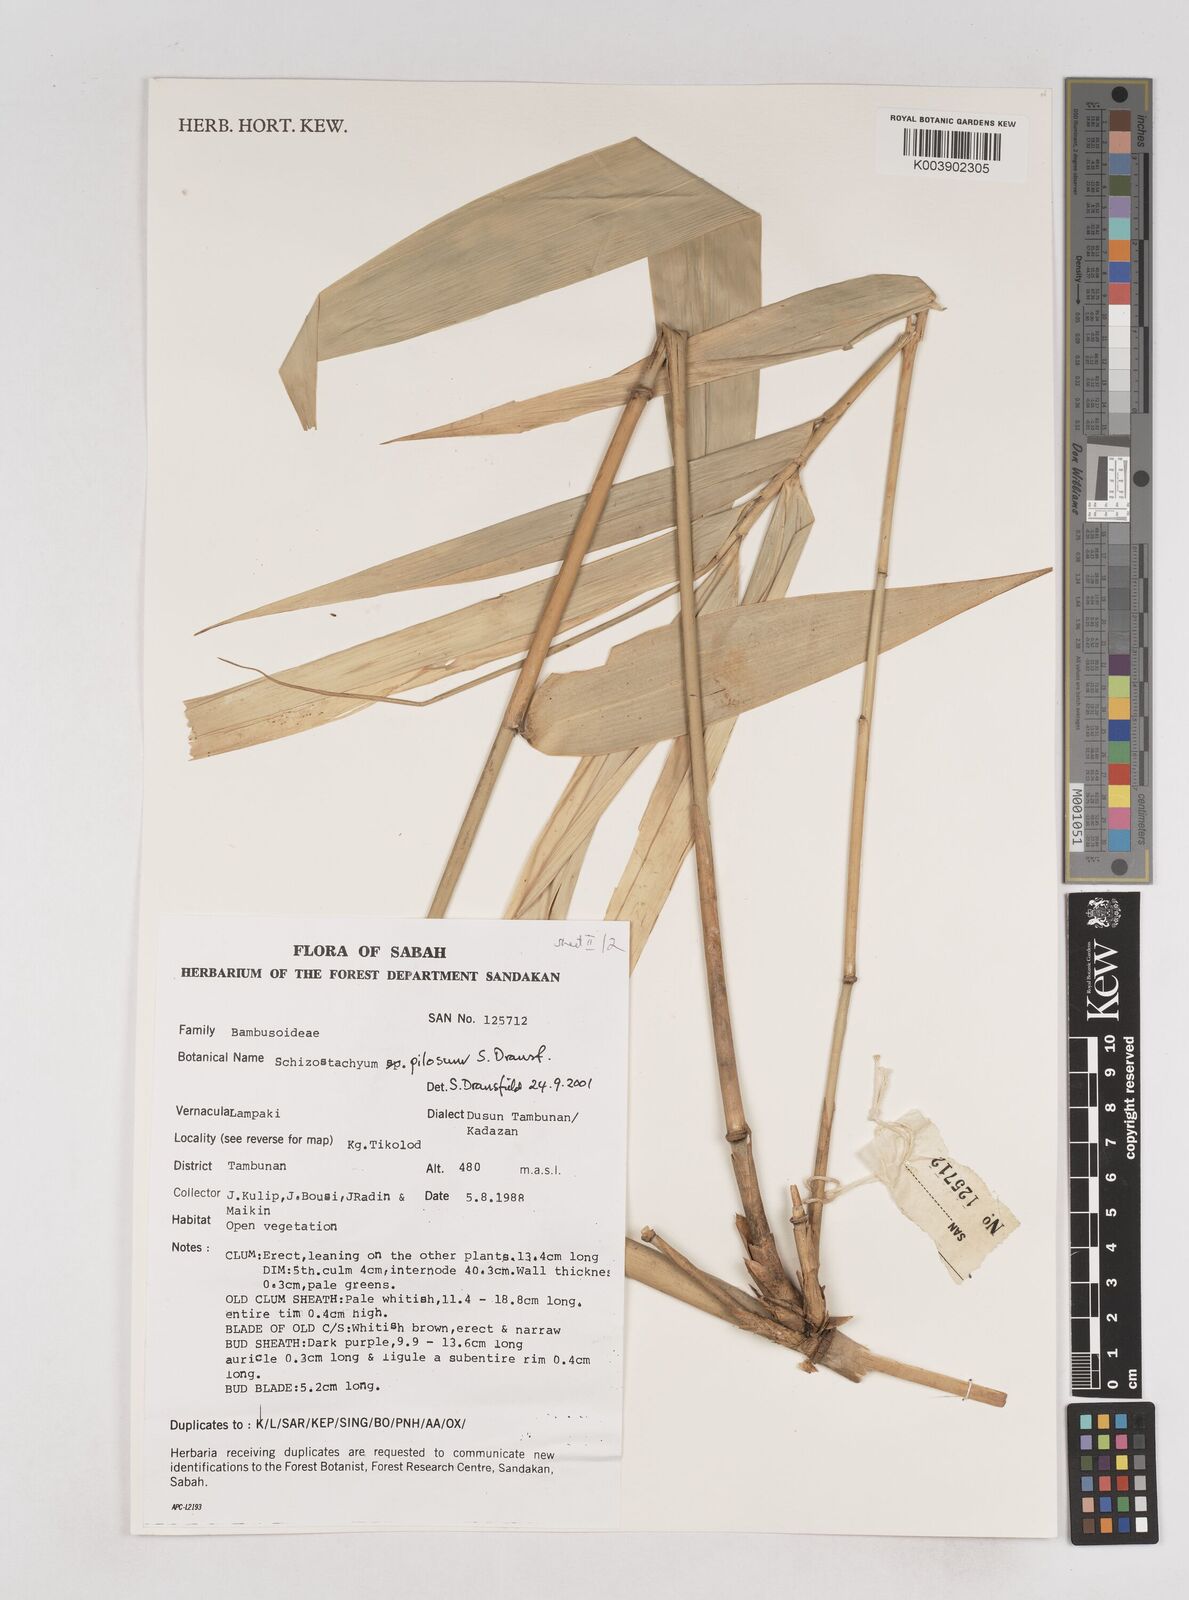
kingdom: Plantae
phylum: Tracheophyta
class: Liliopsida
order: Poales
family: Poaceae
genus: Schizostachyum
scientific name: Schizostachyum pilosum
